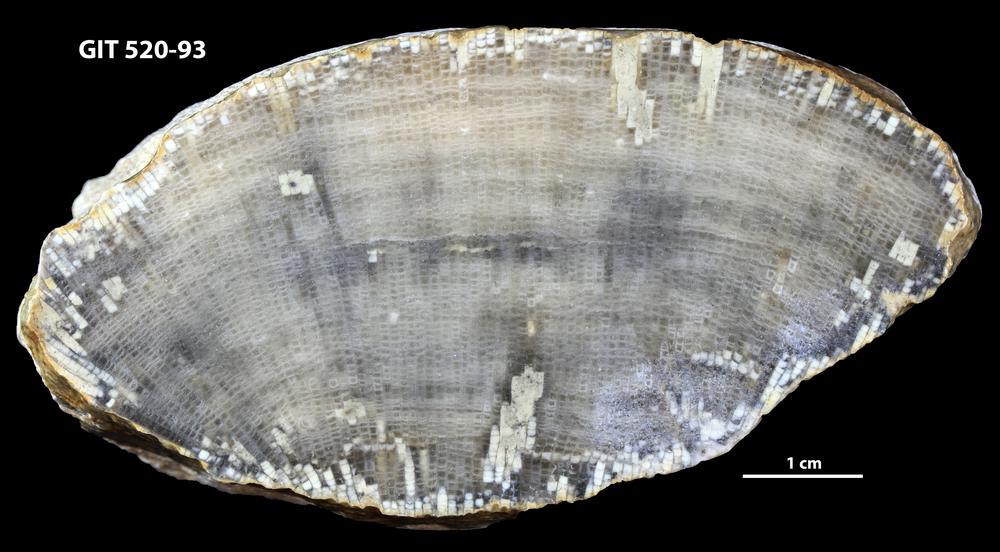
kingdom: Animalia
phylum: Cnidaria
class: Anthozoa
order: Heliolitina
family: Proheliolitidae
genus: Protoheliolites
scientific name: Protoheliolites
